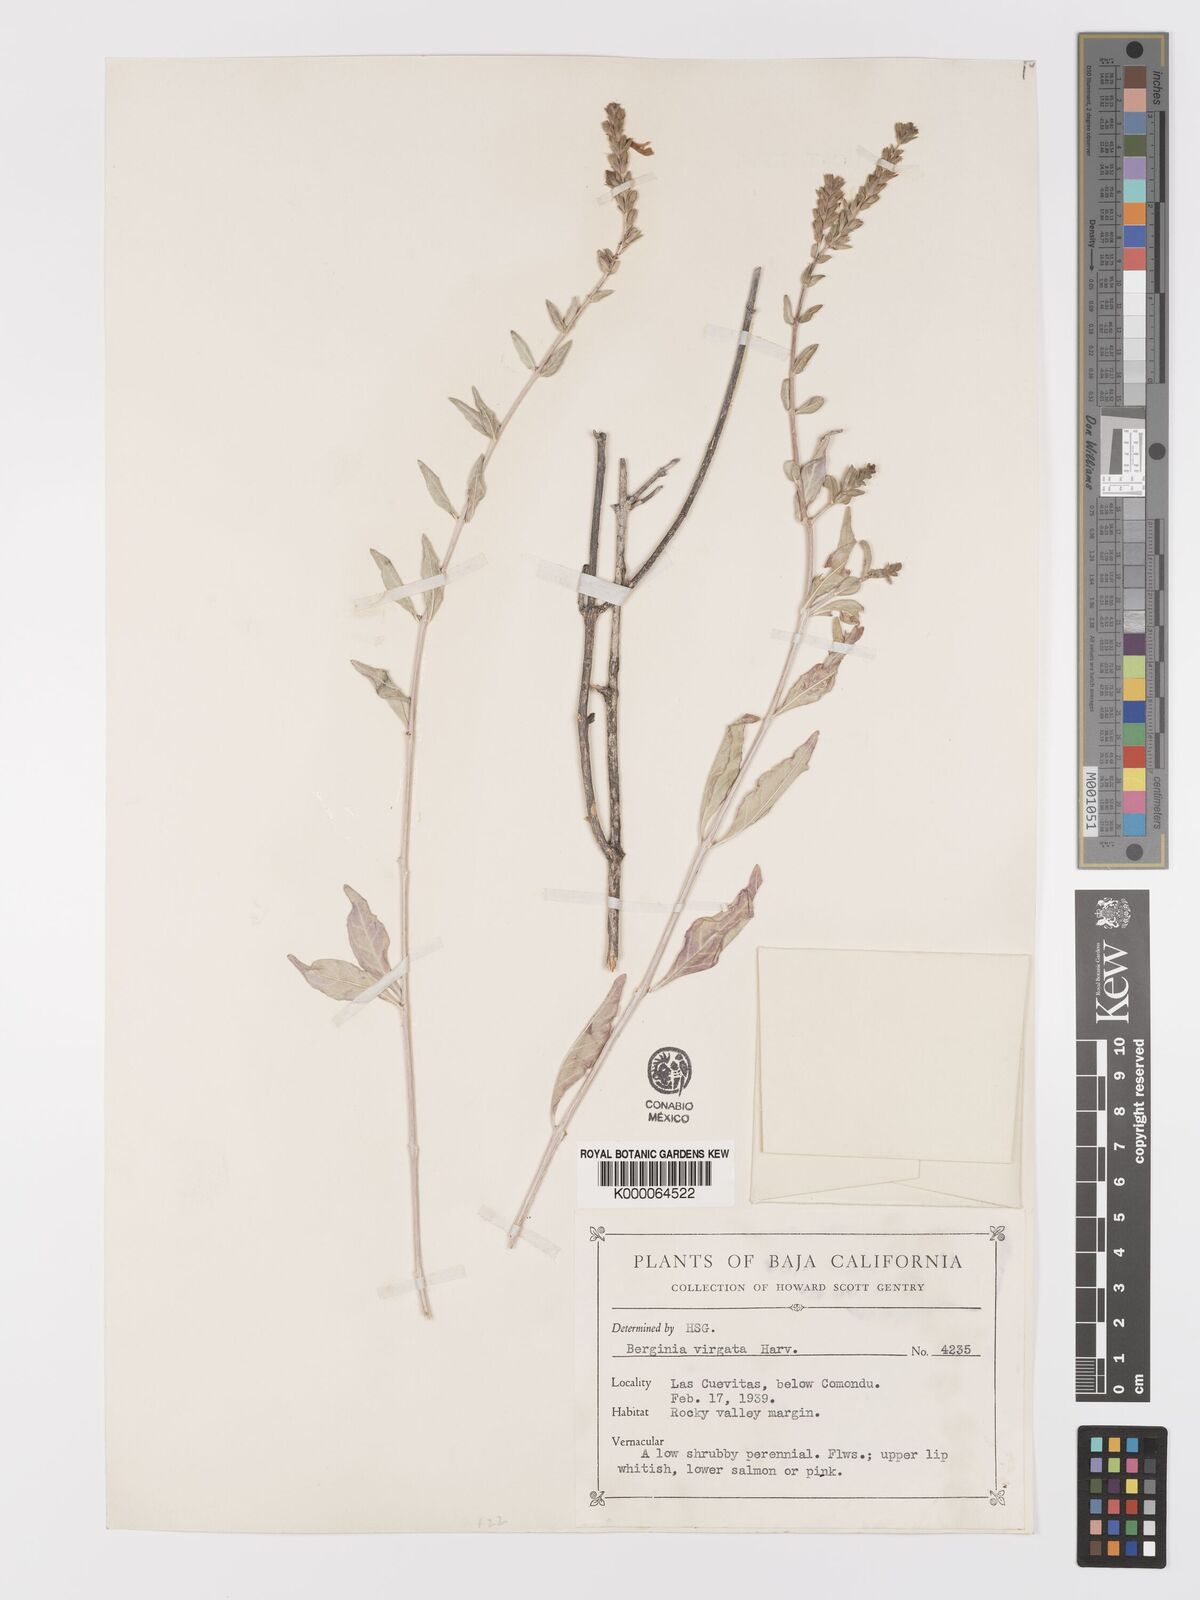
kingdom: Plantae
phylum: Tracheophyta
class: Magnoliopsida
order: Lamiales
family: Acanthaceae
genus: Holographis
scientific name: Holographis virgata
